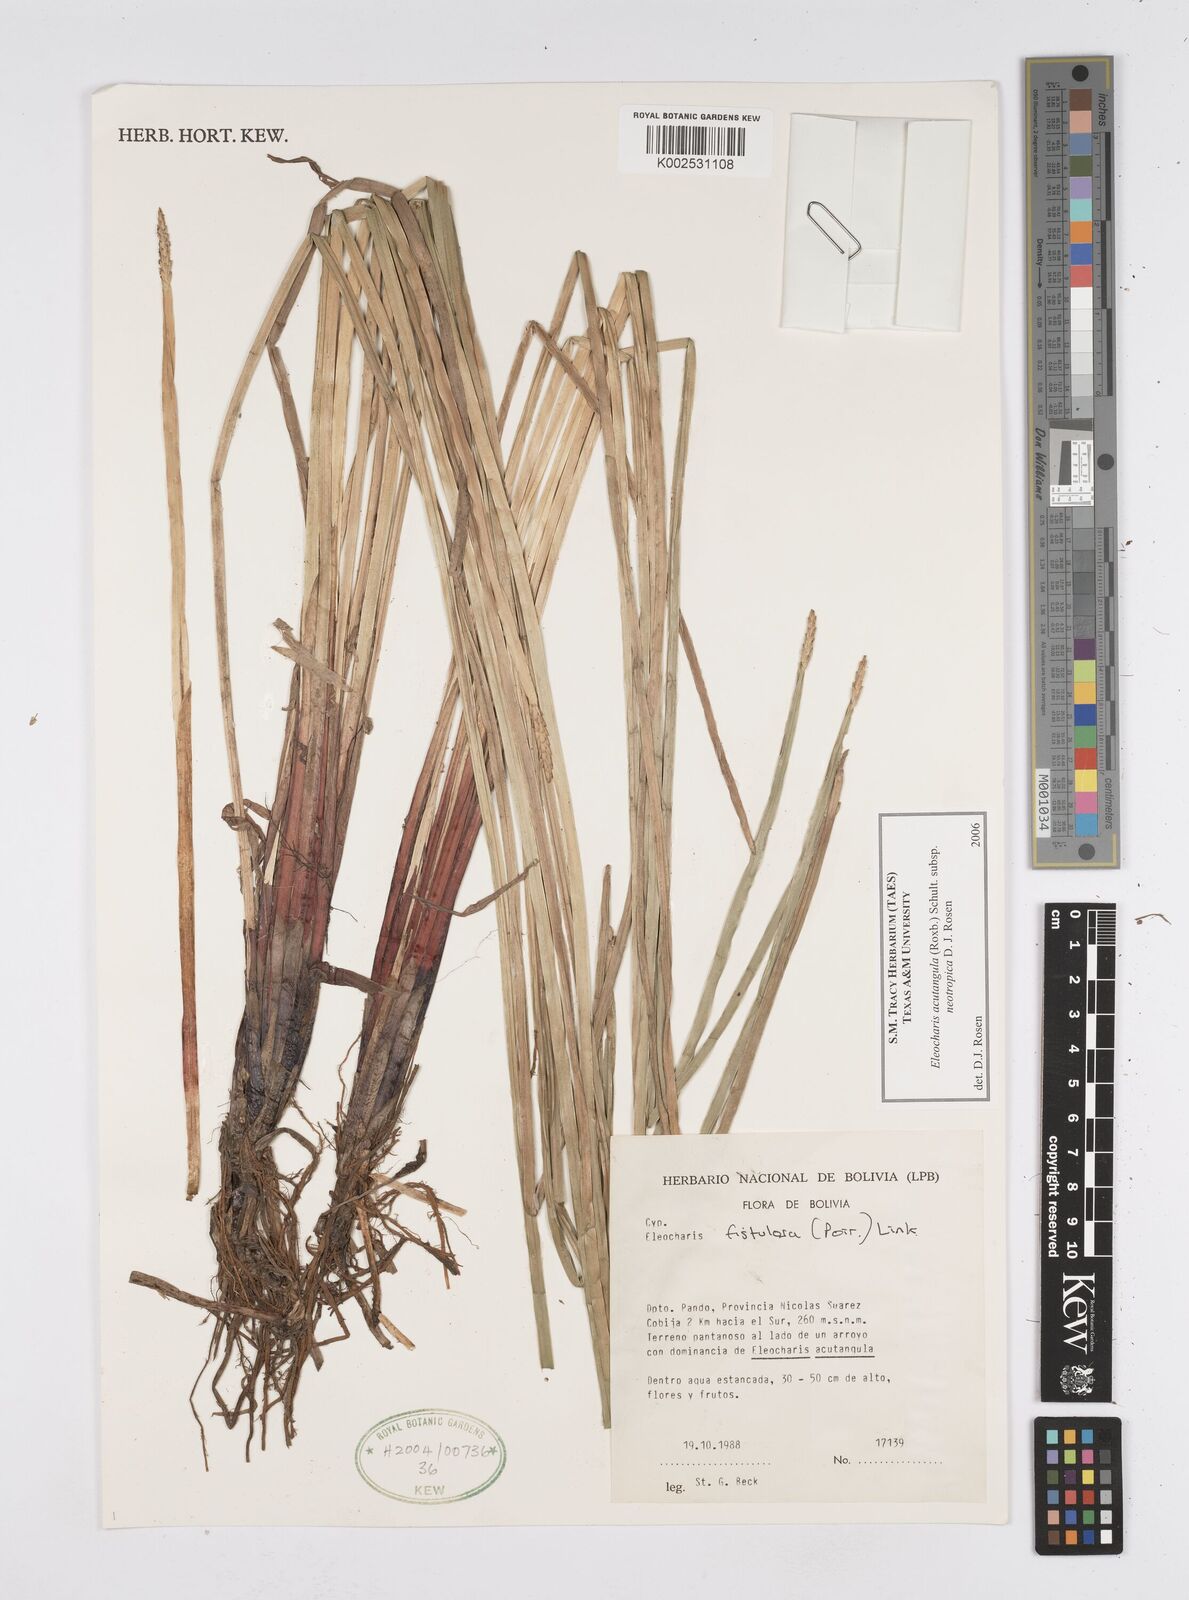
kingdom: Plantae
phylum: Tracheophyta
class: Liliopsida
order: Poales
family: Cyperaceae
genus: Eleocharis
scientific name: Eleocharis acutangula
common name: Acute spikerush
